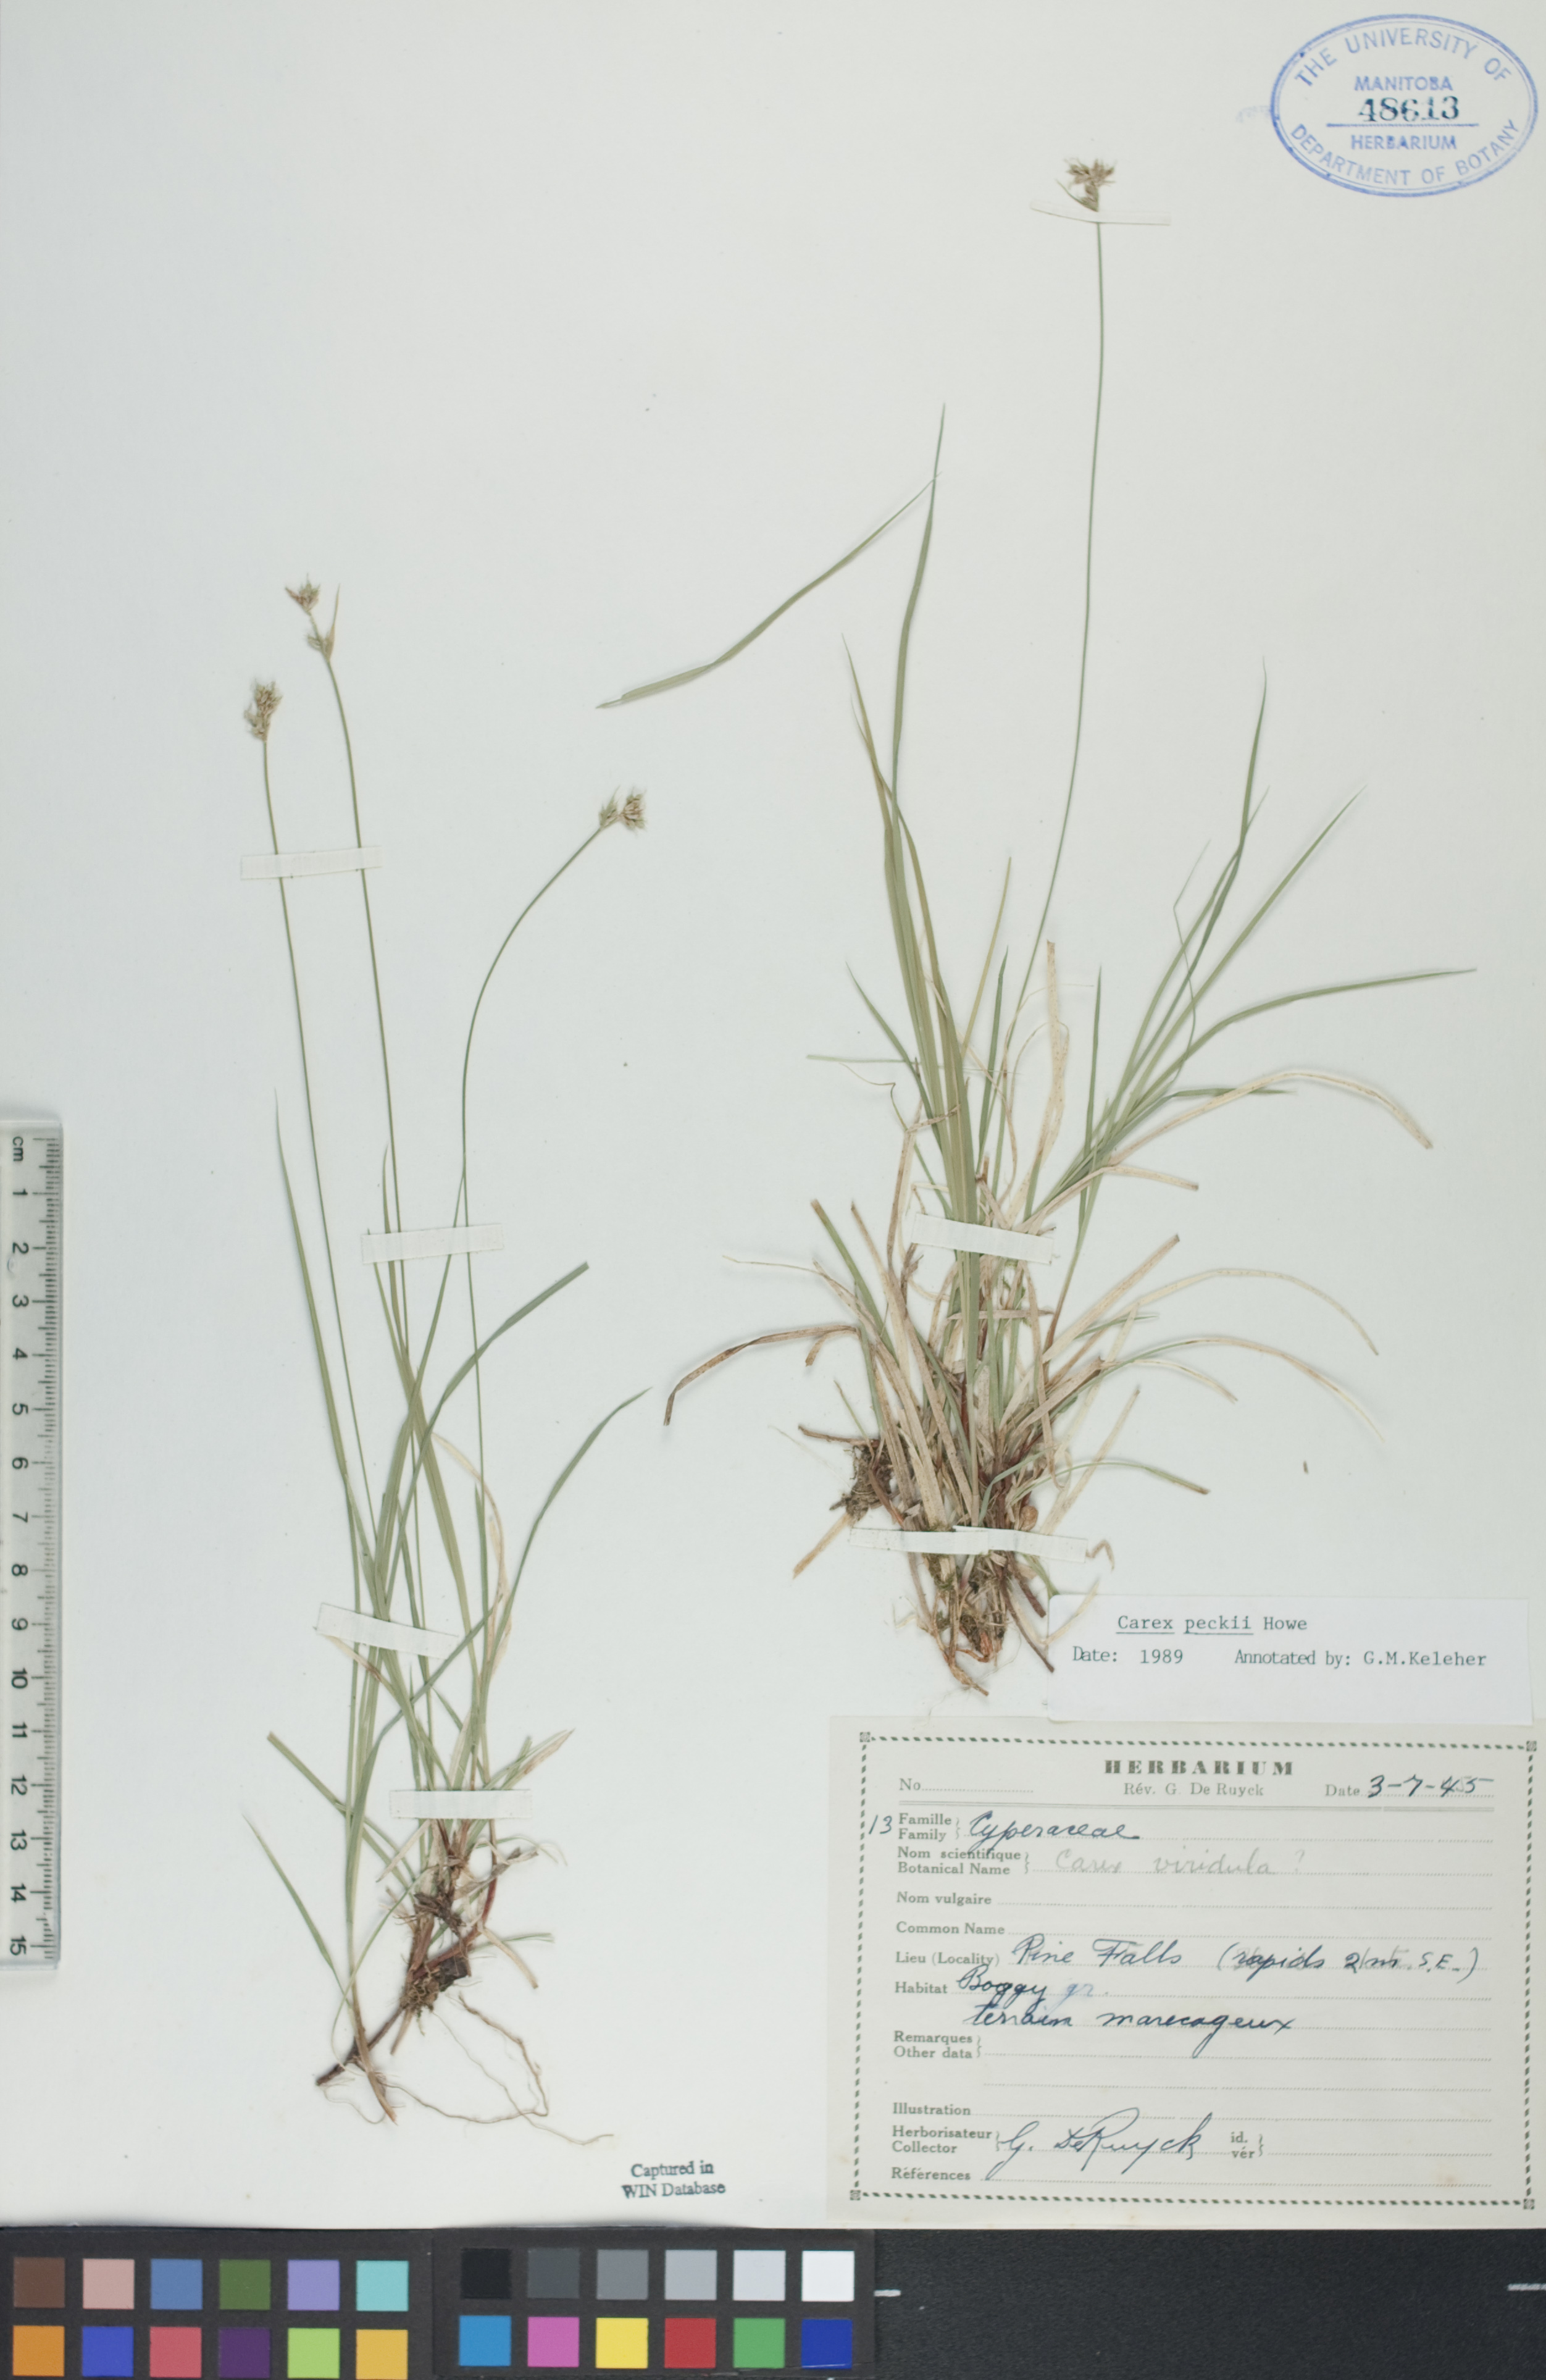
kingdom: Plantae
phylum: Tracheophyta
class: Liliopsida
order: Poales
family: Cyperaceae
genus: Carex
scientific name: Carex peckii
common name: Peck's oak sedge
